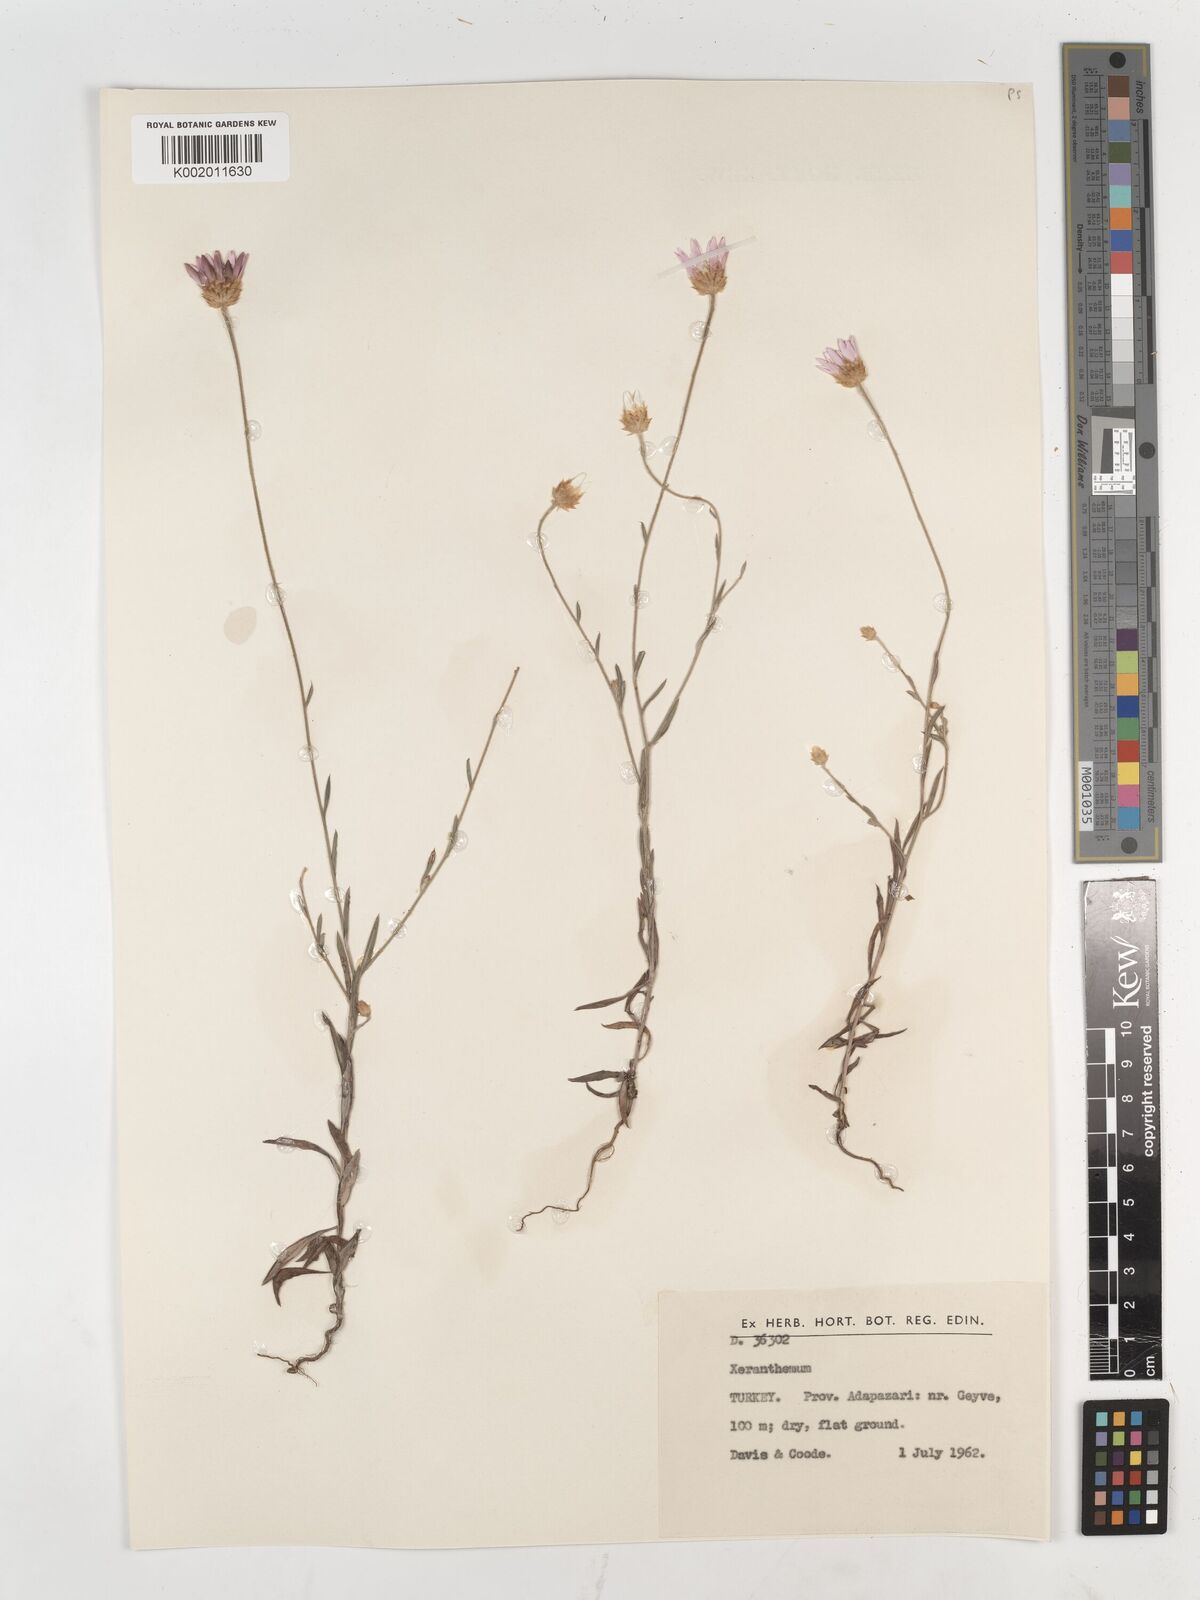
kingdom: Plantae
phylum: Tracheophyta
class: Magnoliopsida
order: Asterales
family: Asteraceae
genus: Xeranthemum
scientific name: Xeranthemum annuum
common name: Immortelle
